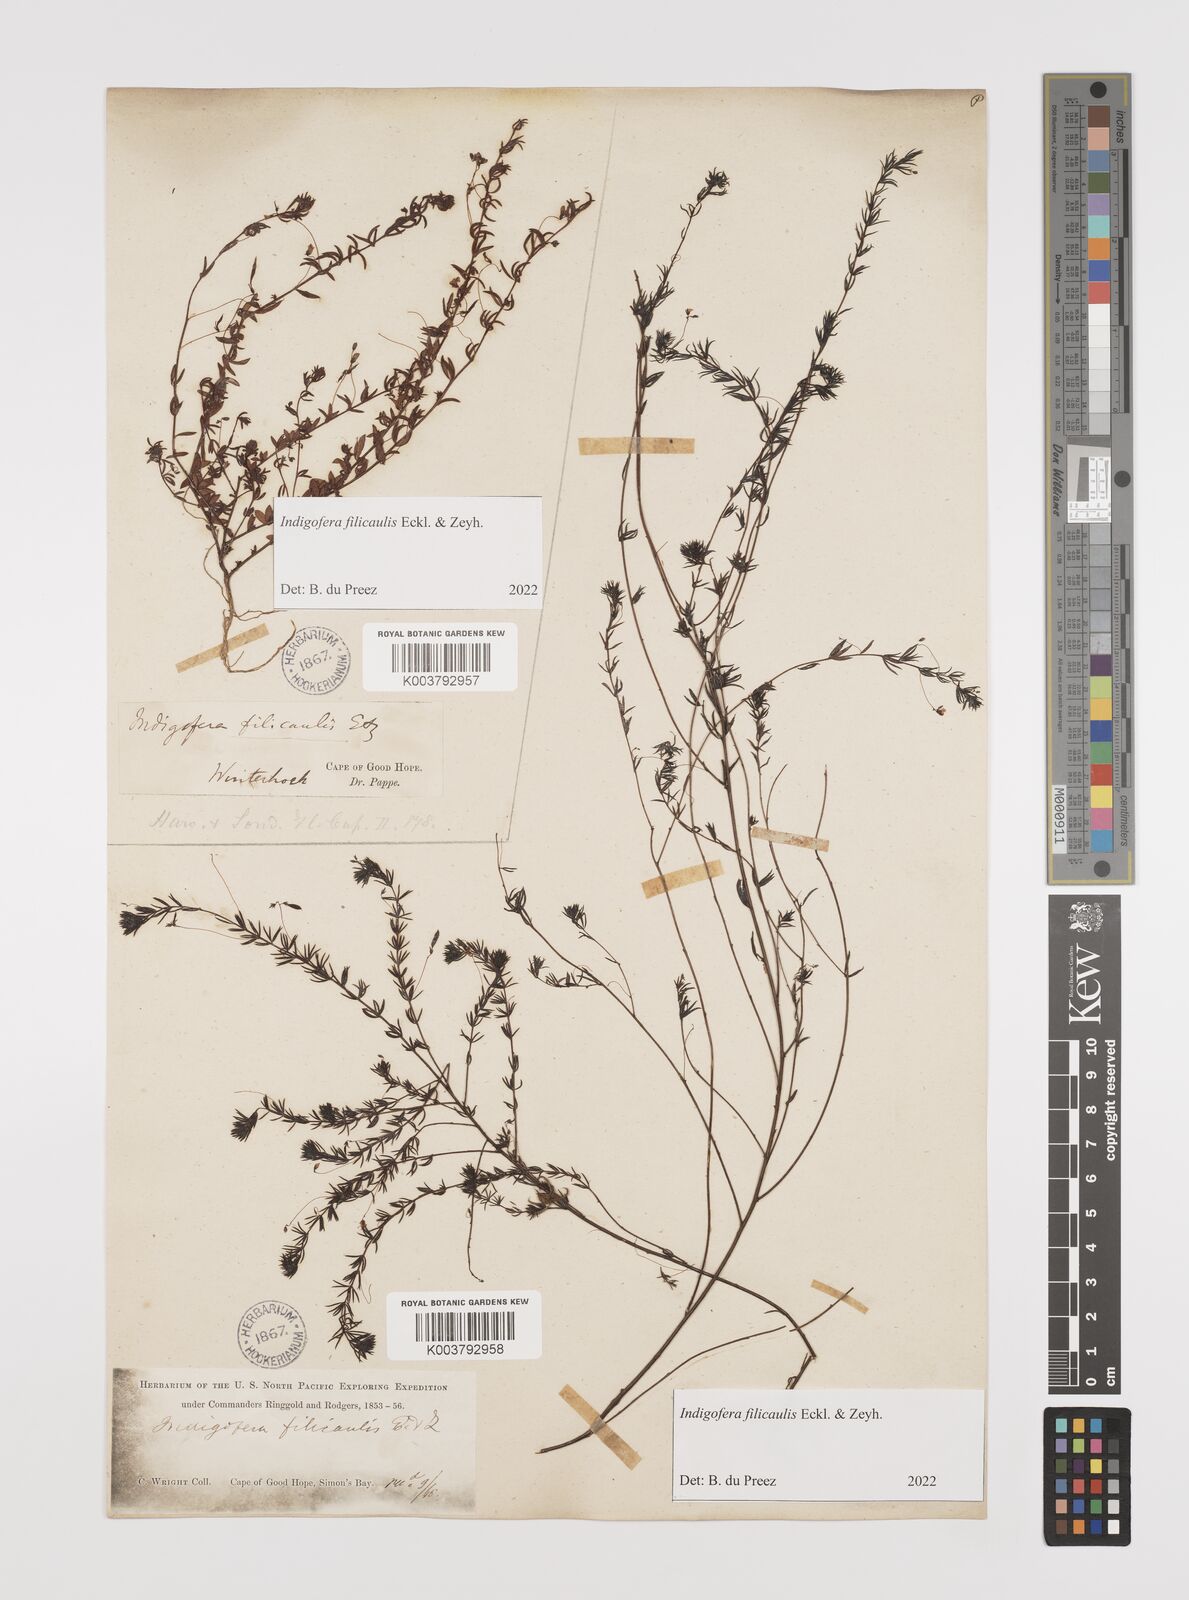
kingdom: Plantae
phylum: Tracheophyta
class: Magnoliopsida
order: Fabales
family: Fabaceae
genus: Indigofera
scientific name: Indigofera filicaulis
